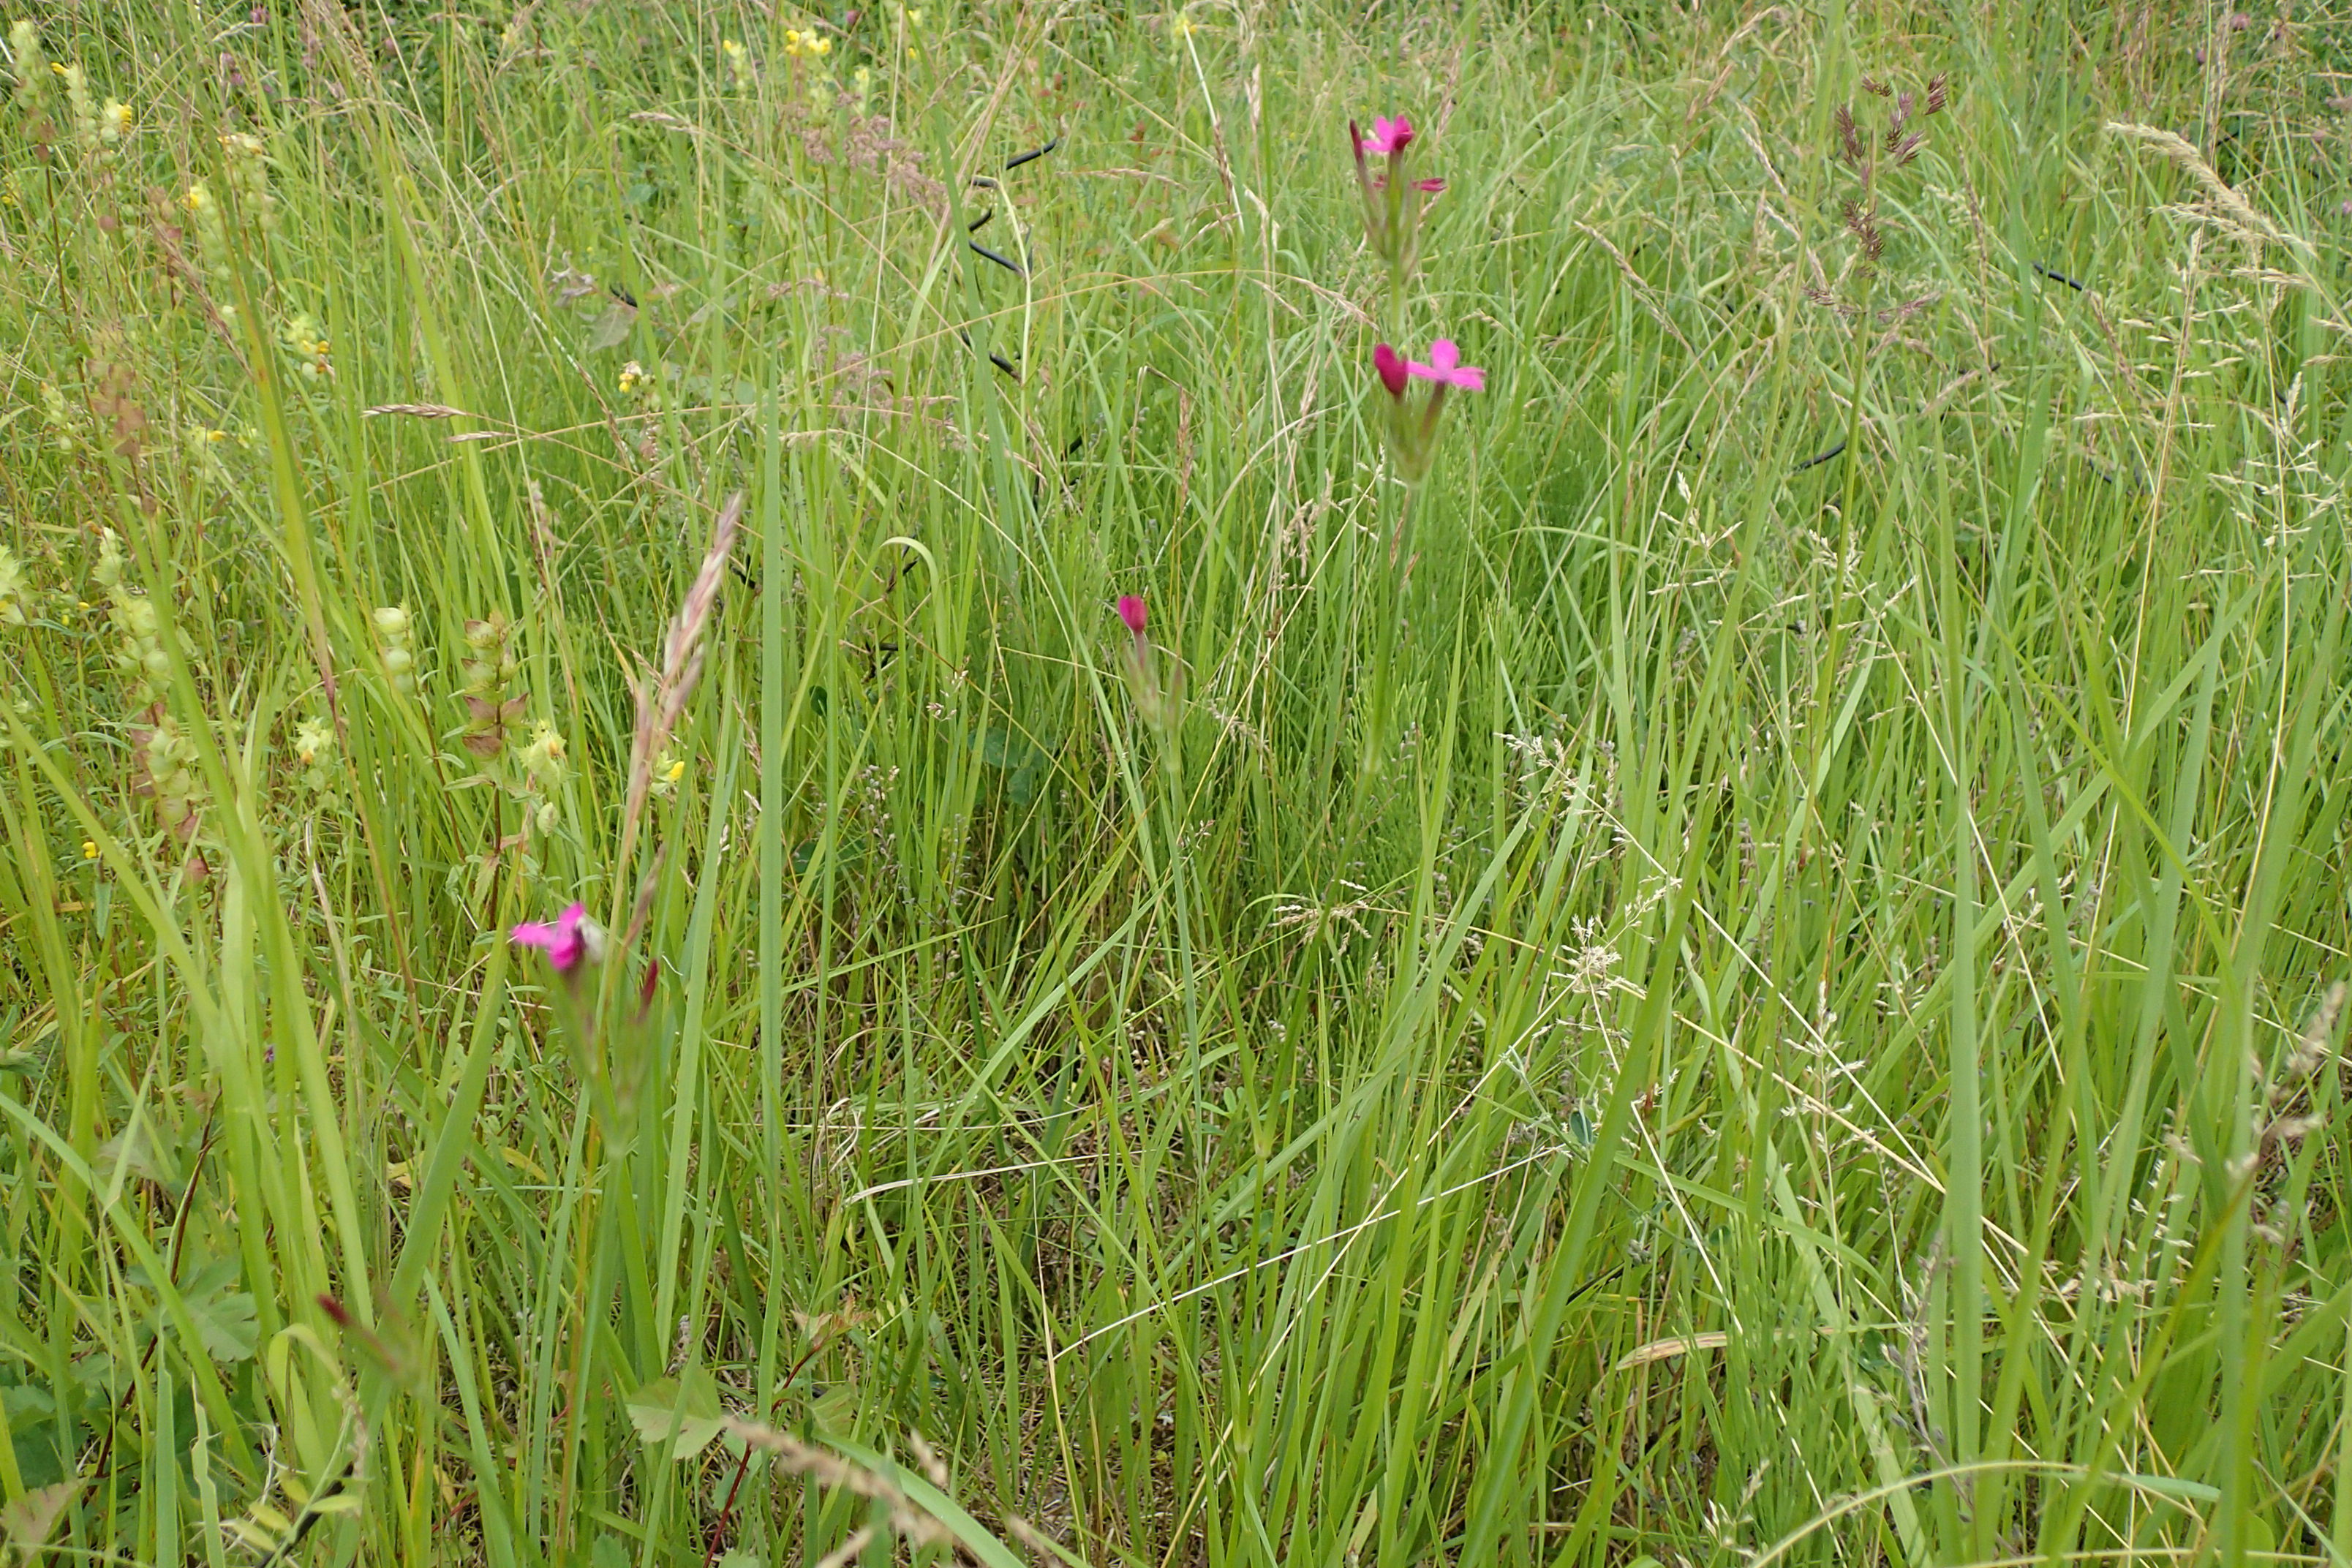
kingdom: Plantae
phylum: Tracheophyta
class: Magnoliopsida
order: Caryophyllales
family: Caryophyllaceae
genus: Dianthus
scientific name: Dianthus armeria
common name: Kost-nellike
